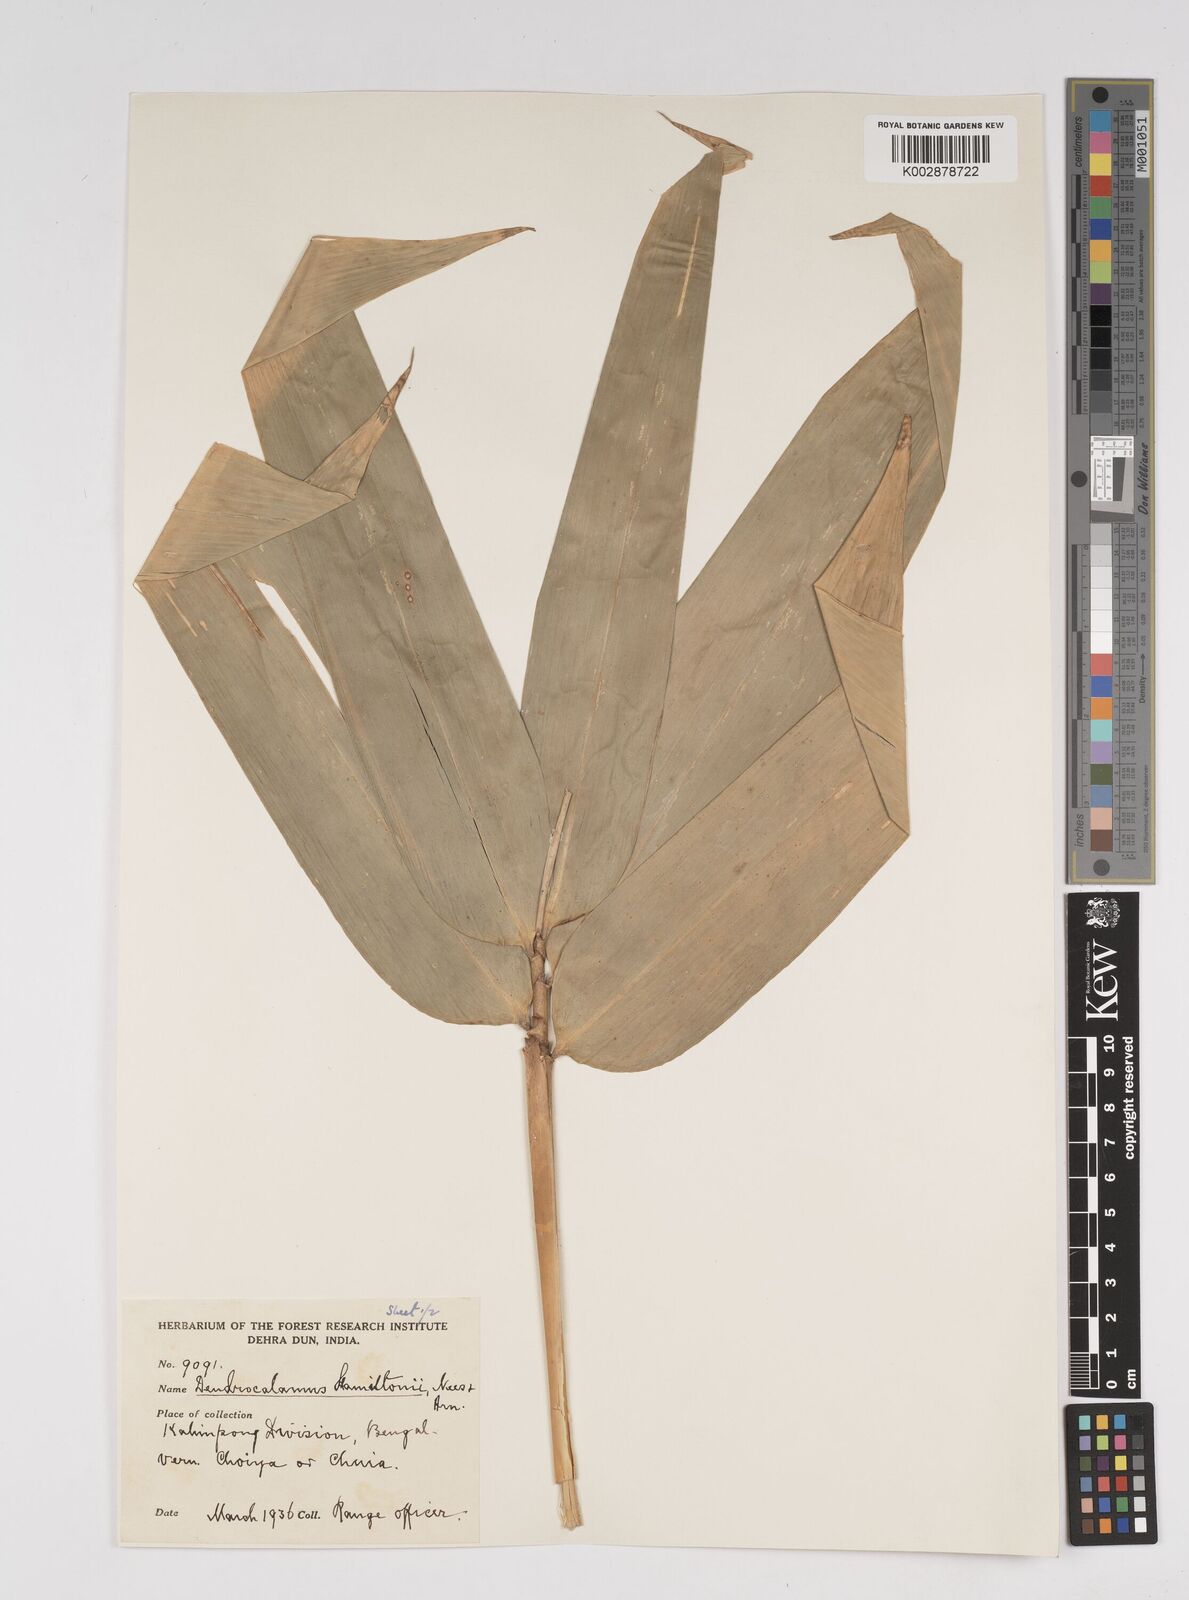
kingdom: Plantae
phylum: Tracheophyta
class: Liliopsida
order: Poales
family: Poaceae
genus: Dendrocalamus
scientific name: Dendrocalamus hamiltonii
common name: Tama bamboo
